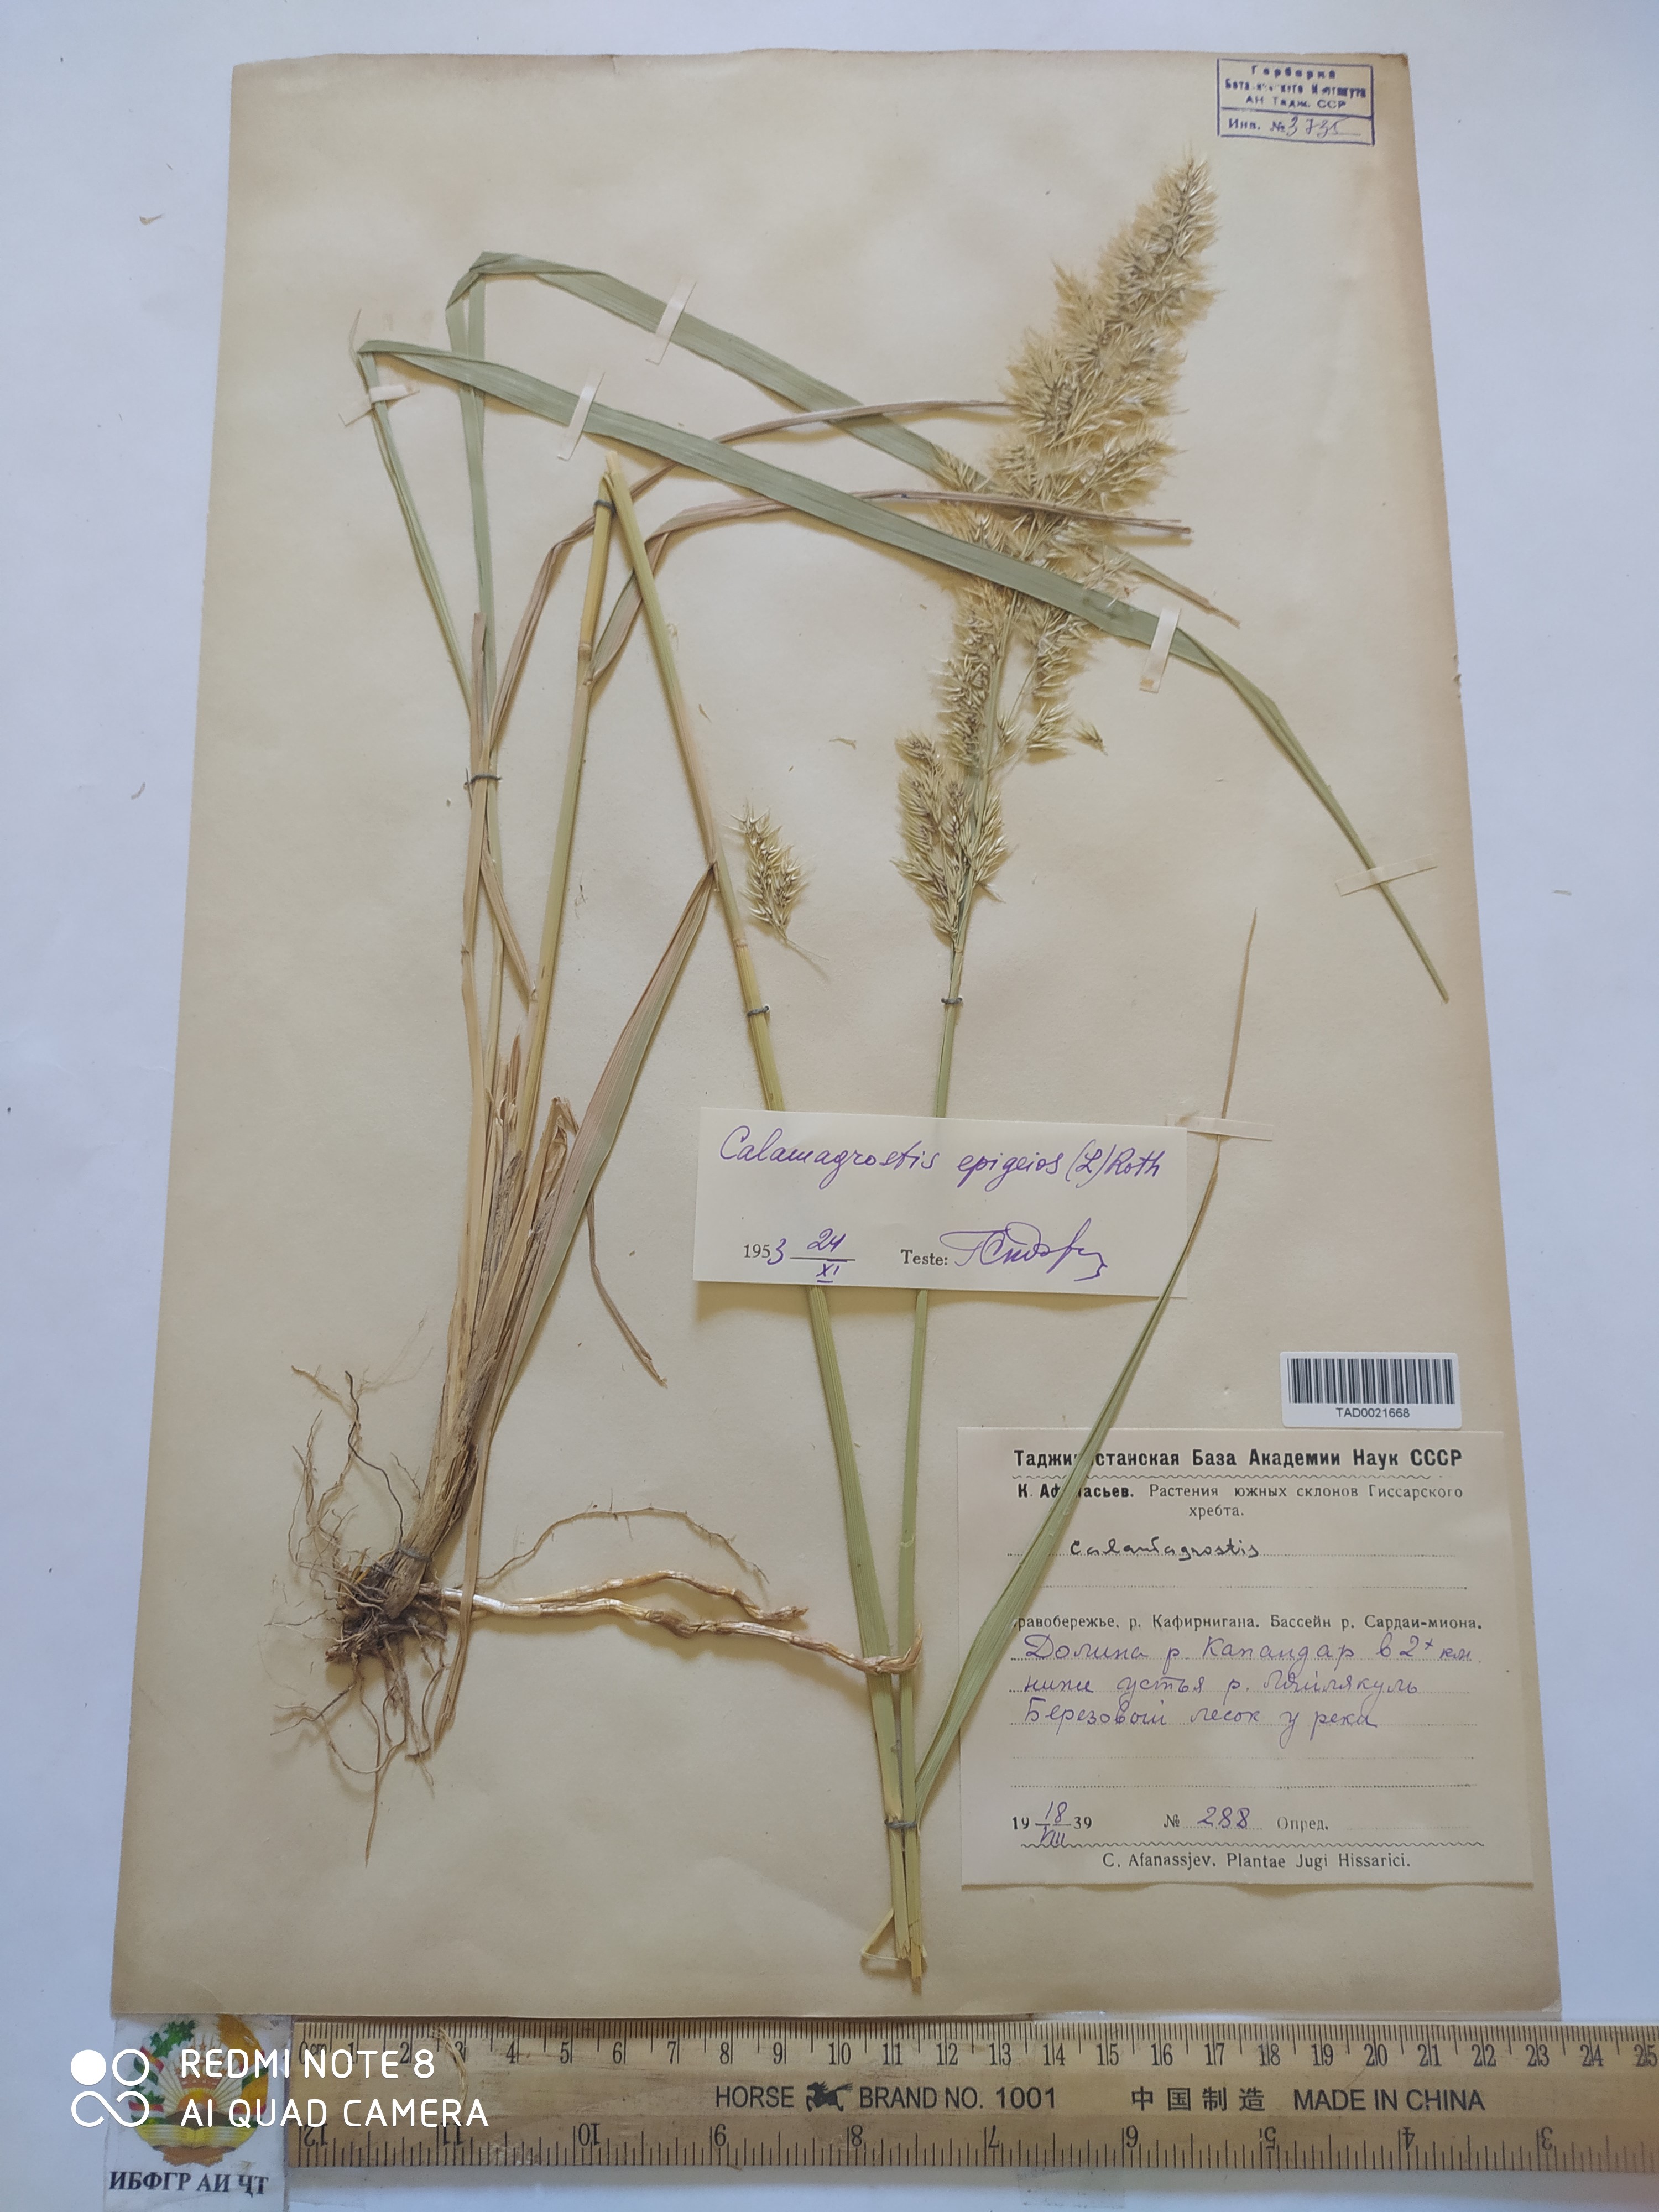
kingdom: Plantae
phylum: Tracheophyta
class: Liliopsida
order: Poales
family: Poaceae
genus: Calamagrostis
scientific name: Calamagrostis epigejos
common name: Wood small-reed
